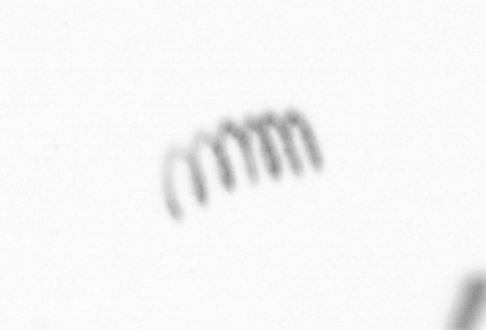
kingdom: Chromista
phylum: Ochrophyta
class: Bacillariophyceae
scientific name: Bacillariophyceae
